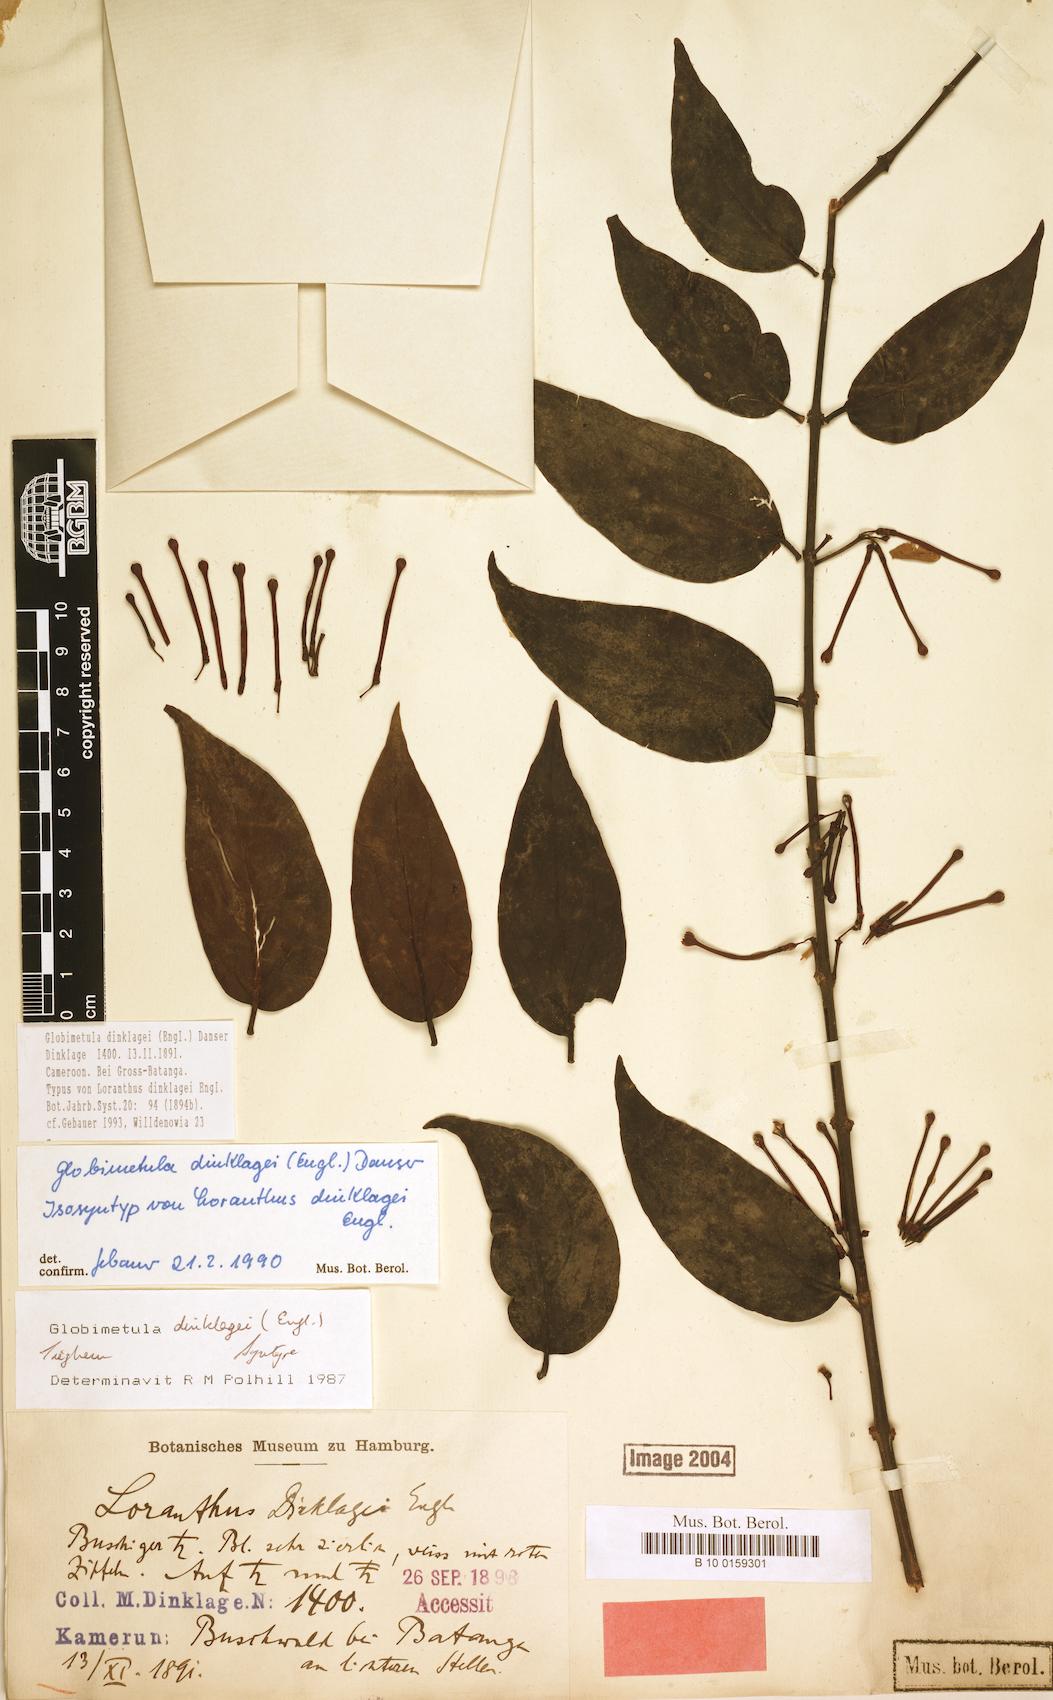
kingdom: Plantae
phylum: Tracheophyta
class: Magnoliopsida
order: Santalales
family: Loranthaceae
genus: Globimetula
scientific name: Globimetula dinklagei
